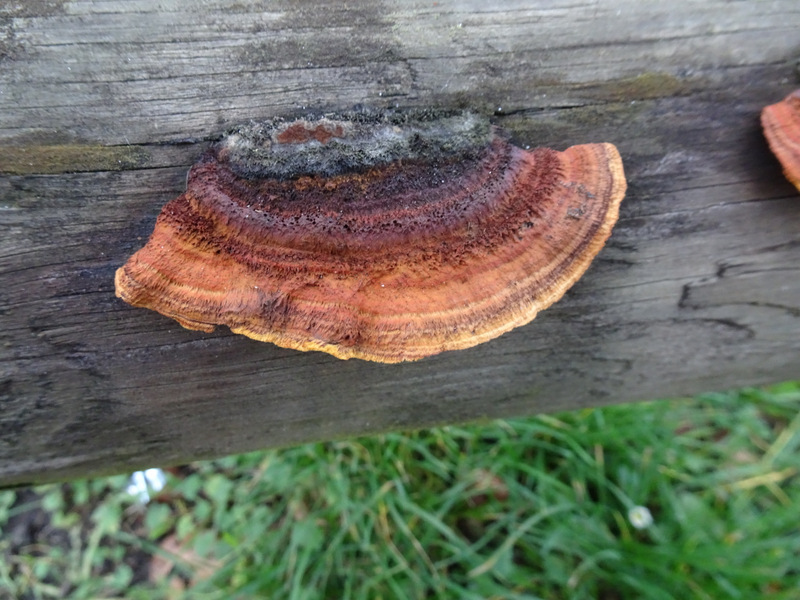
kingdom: Fungi
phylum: Basidiomycota
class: Agaricomycetes
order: Gloeophyllales
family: Gloeophyllaceae
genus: Gloeophyllum
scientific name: Gloeophyllum sepiarium
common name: fyrre-korkhat
